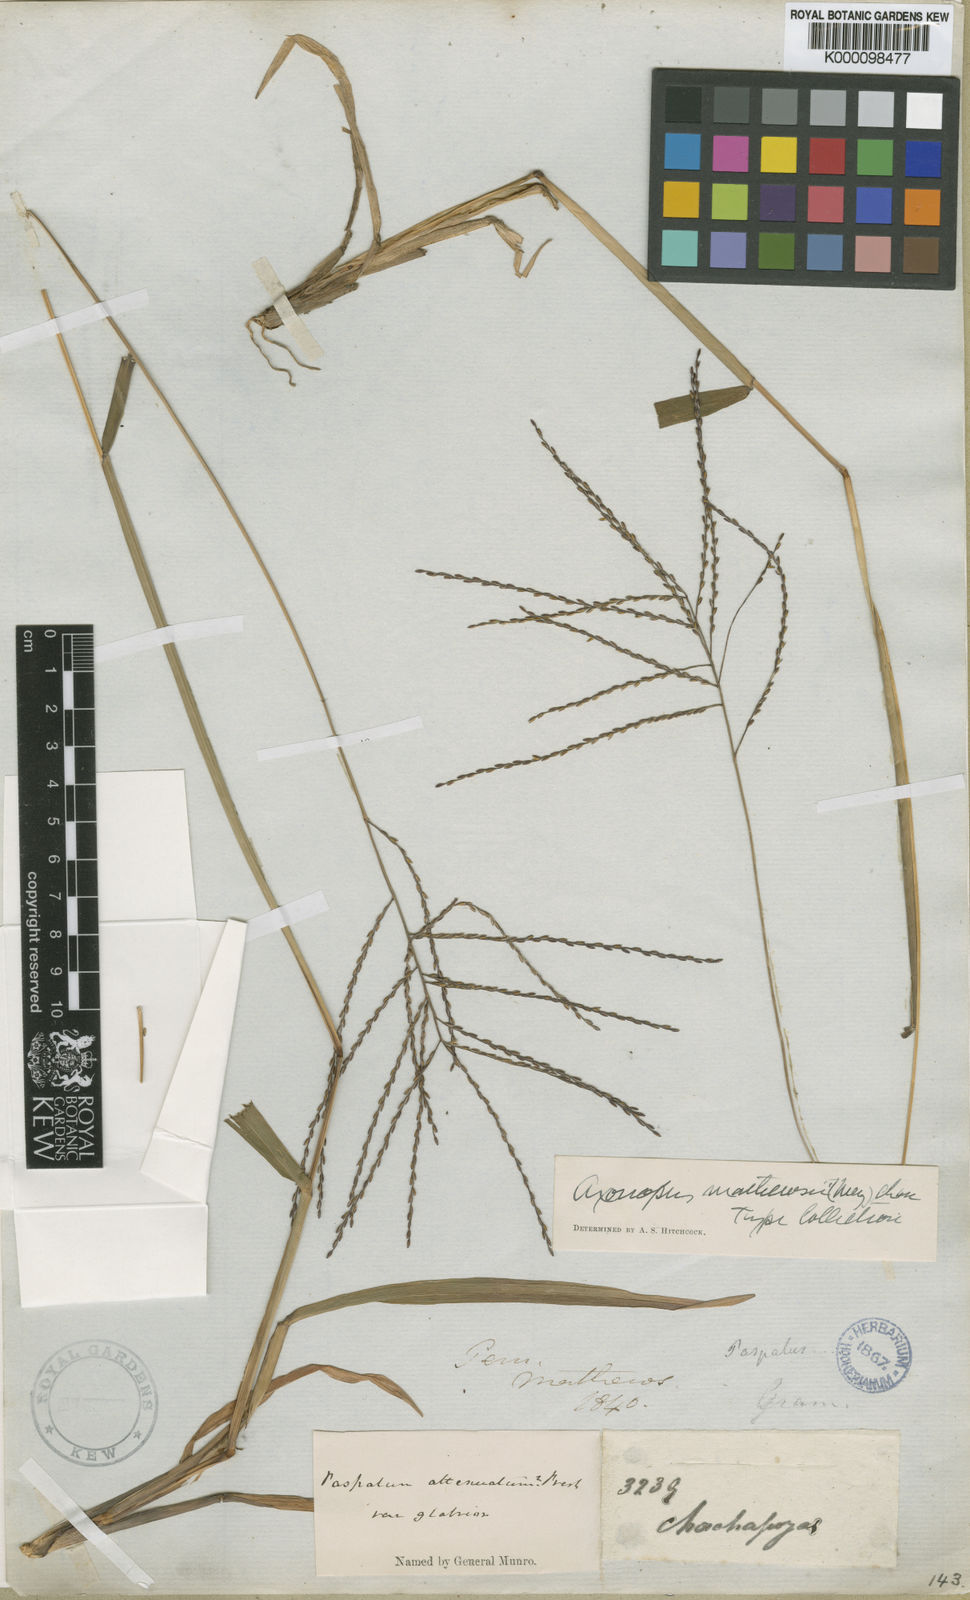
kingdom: Plantae
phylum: Tracheophyta
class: Liliopsida
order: Poales
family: Poaceae
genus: Axonopus
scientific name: Axonopus scoparius
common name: Imperial grass
